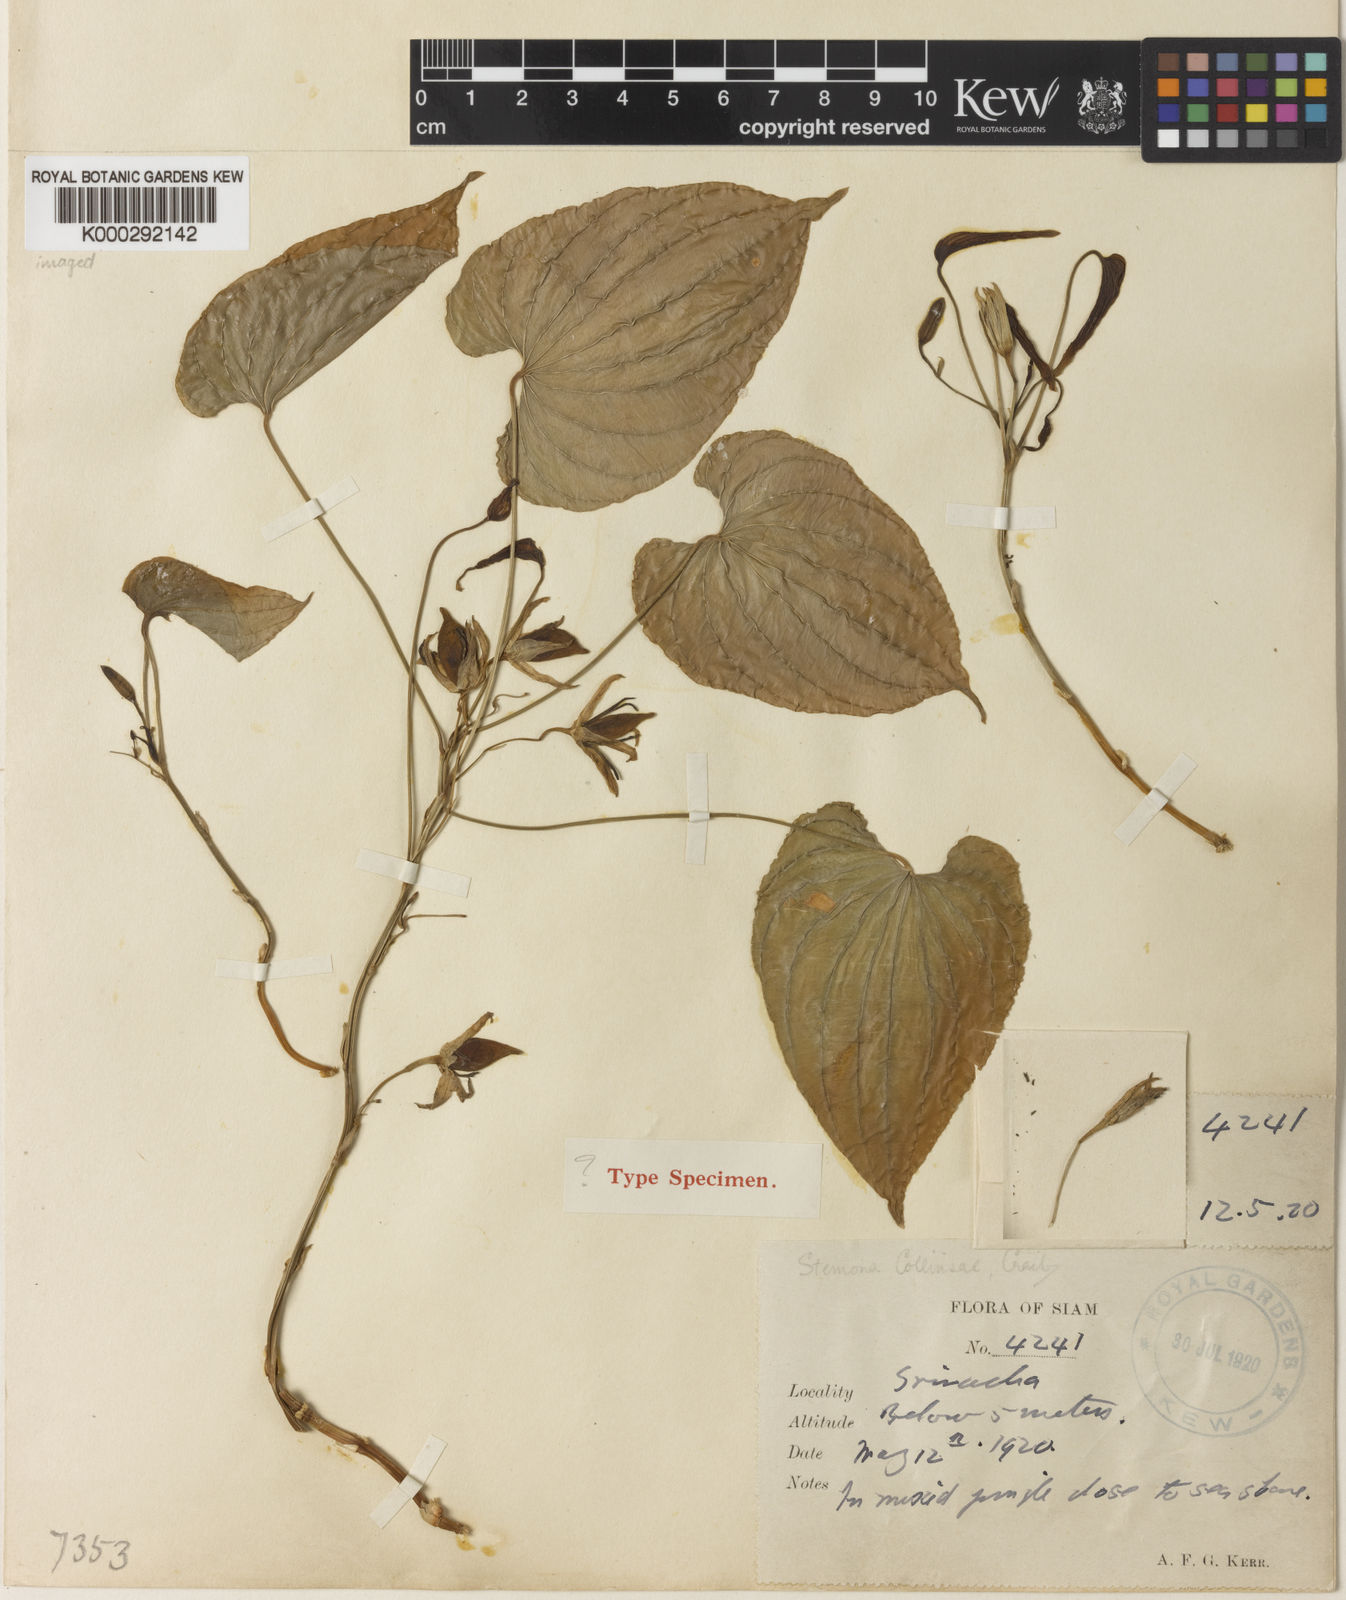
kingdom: Plantae
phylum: Tracheophyta
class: Liliopsida
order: Pandanales
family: Stemonaceae
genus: Stemona
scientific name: Stemona collinsiae
